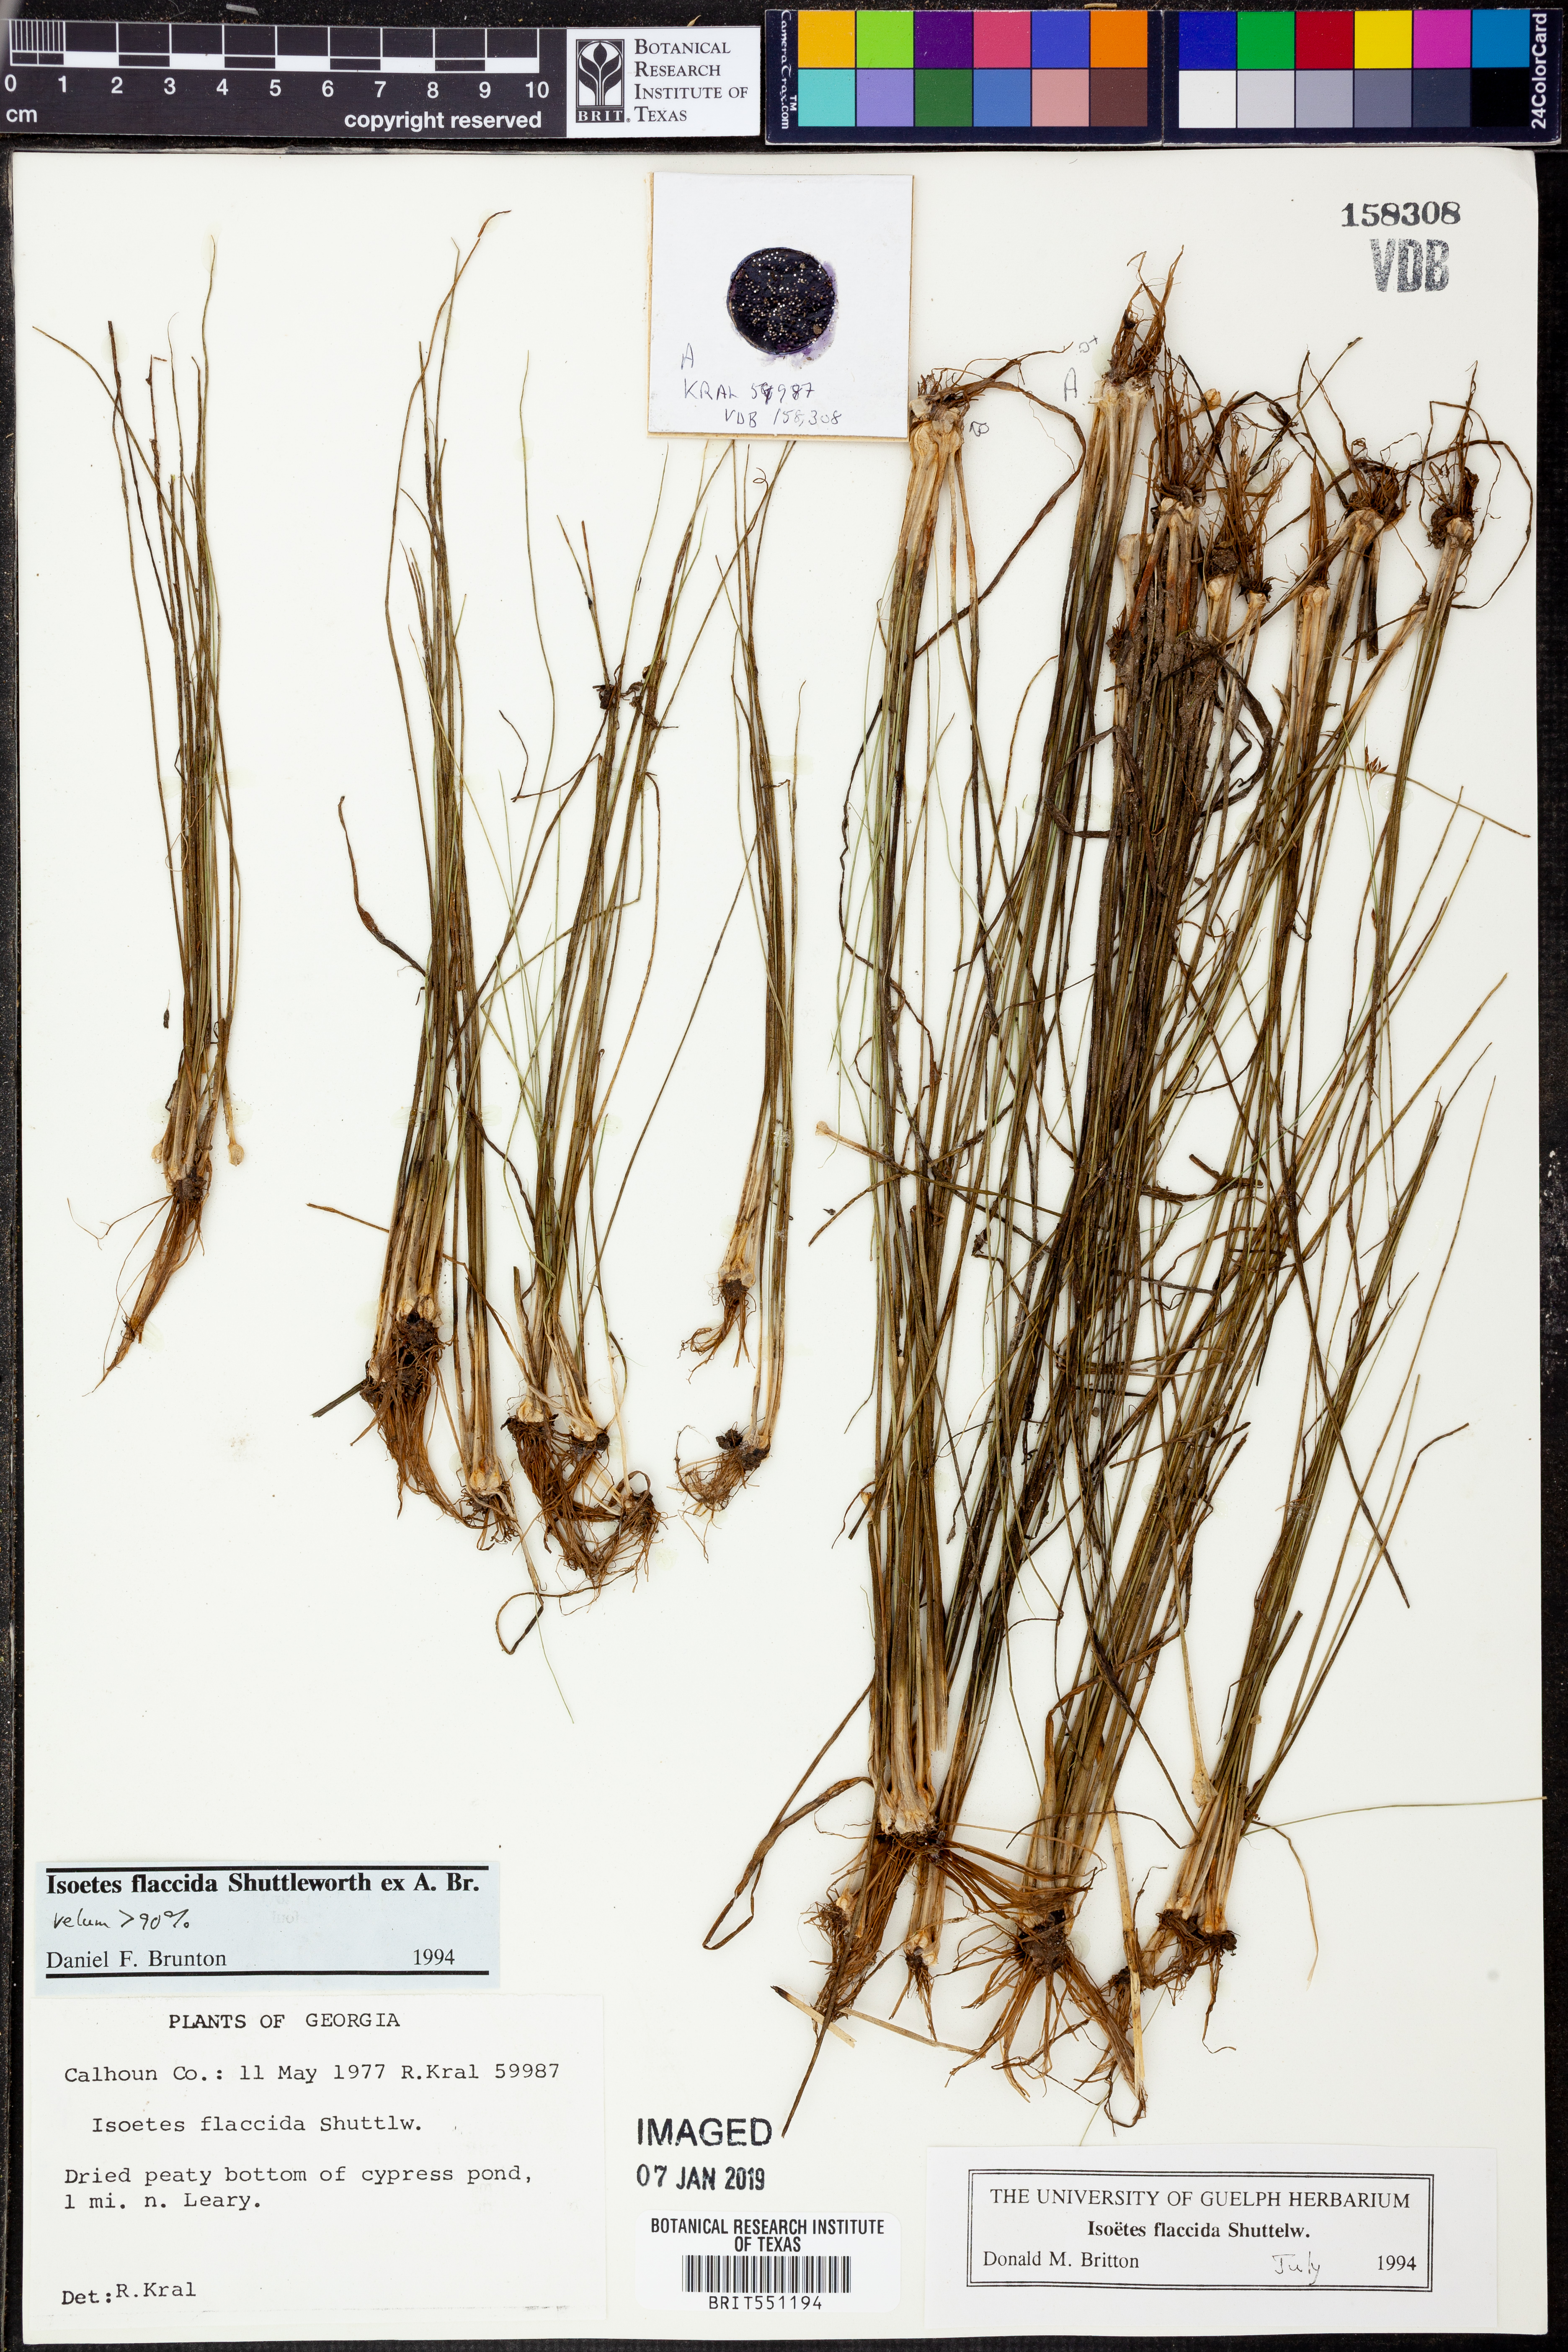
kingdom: Plantae
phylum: Tracheophyta
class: Lycopodiopsida
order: Isoetales
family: Isoetaceae
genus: Isoetes
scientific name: Isoetes flaccida
